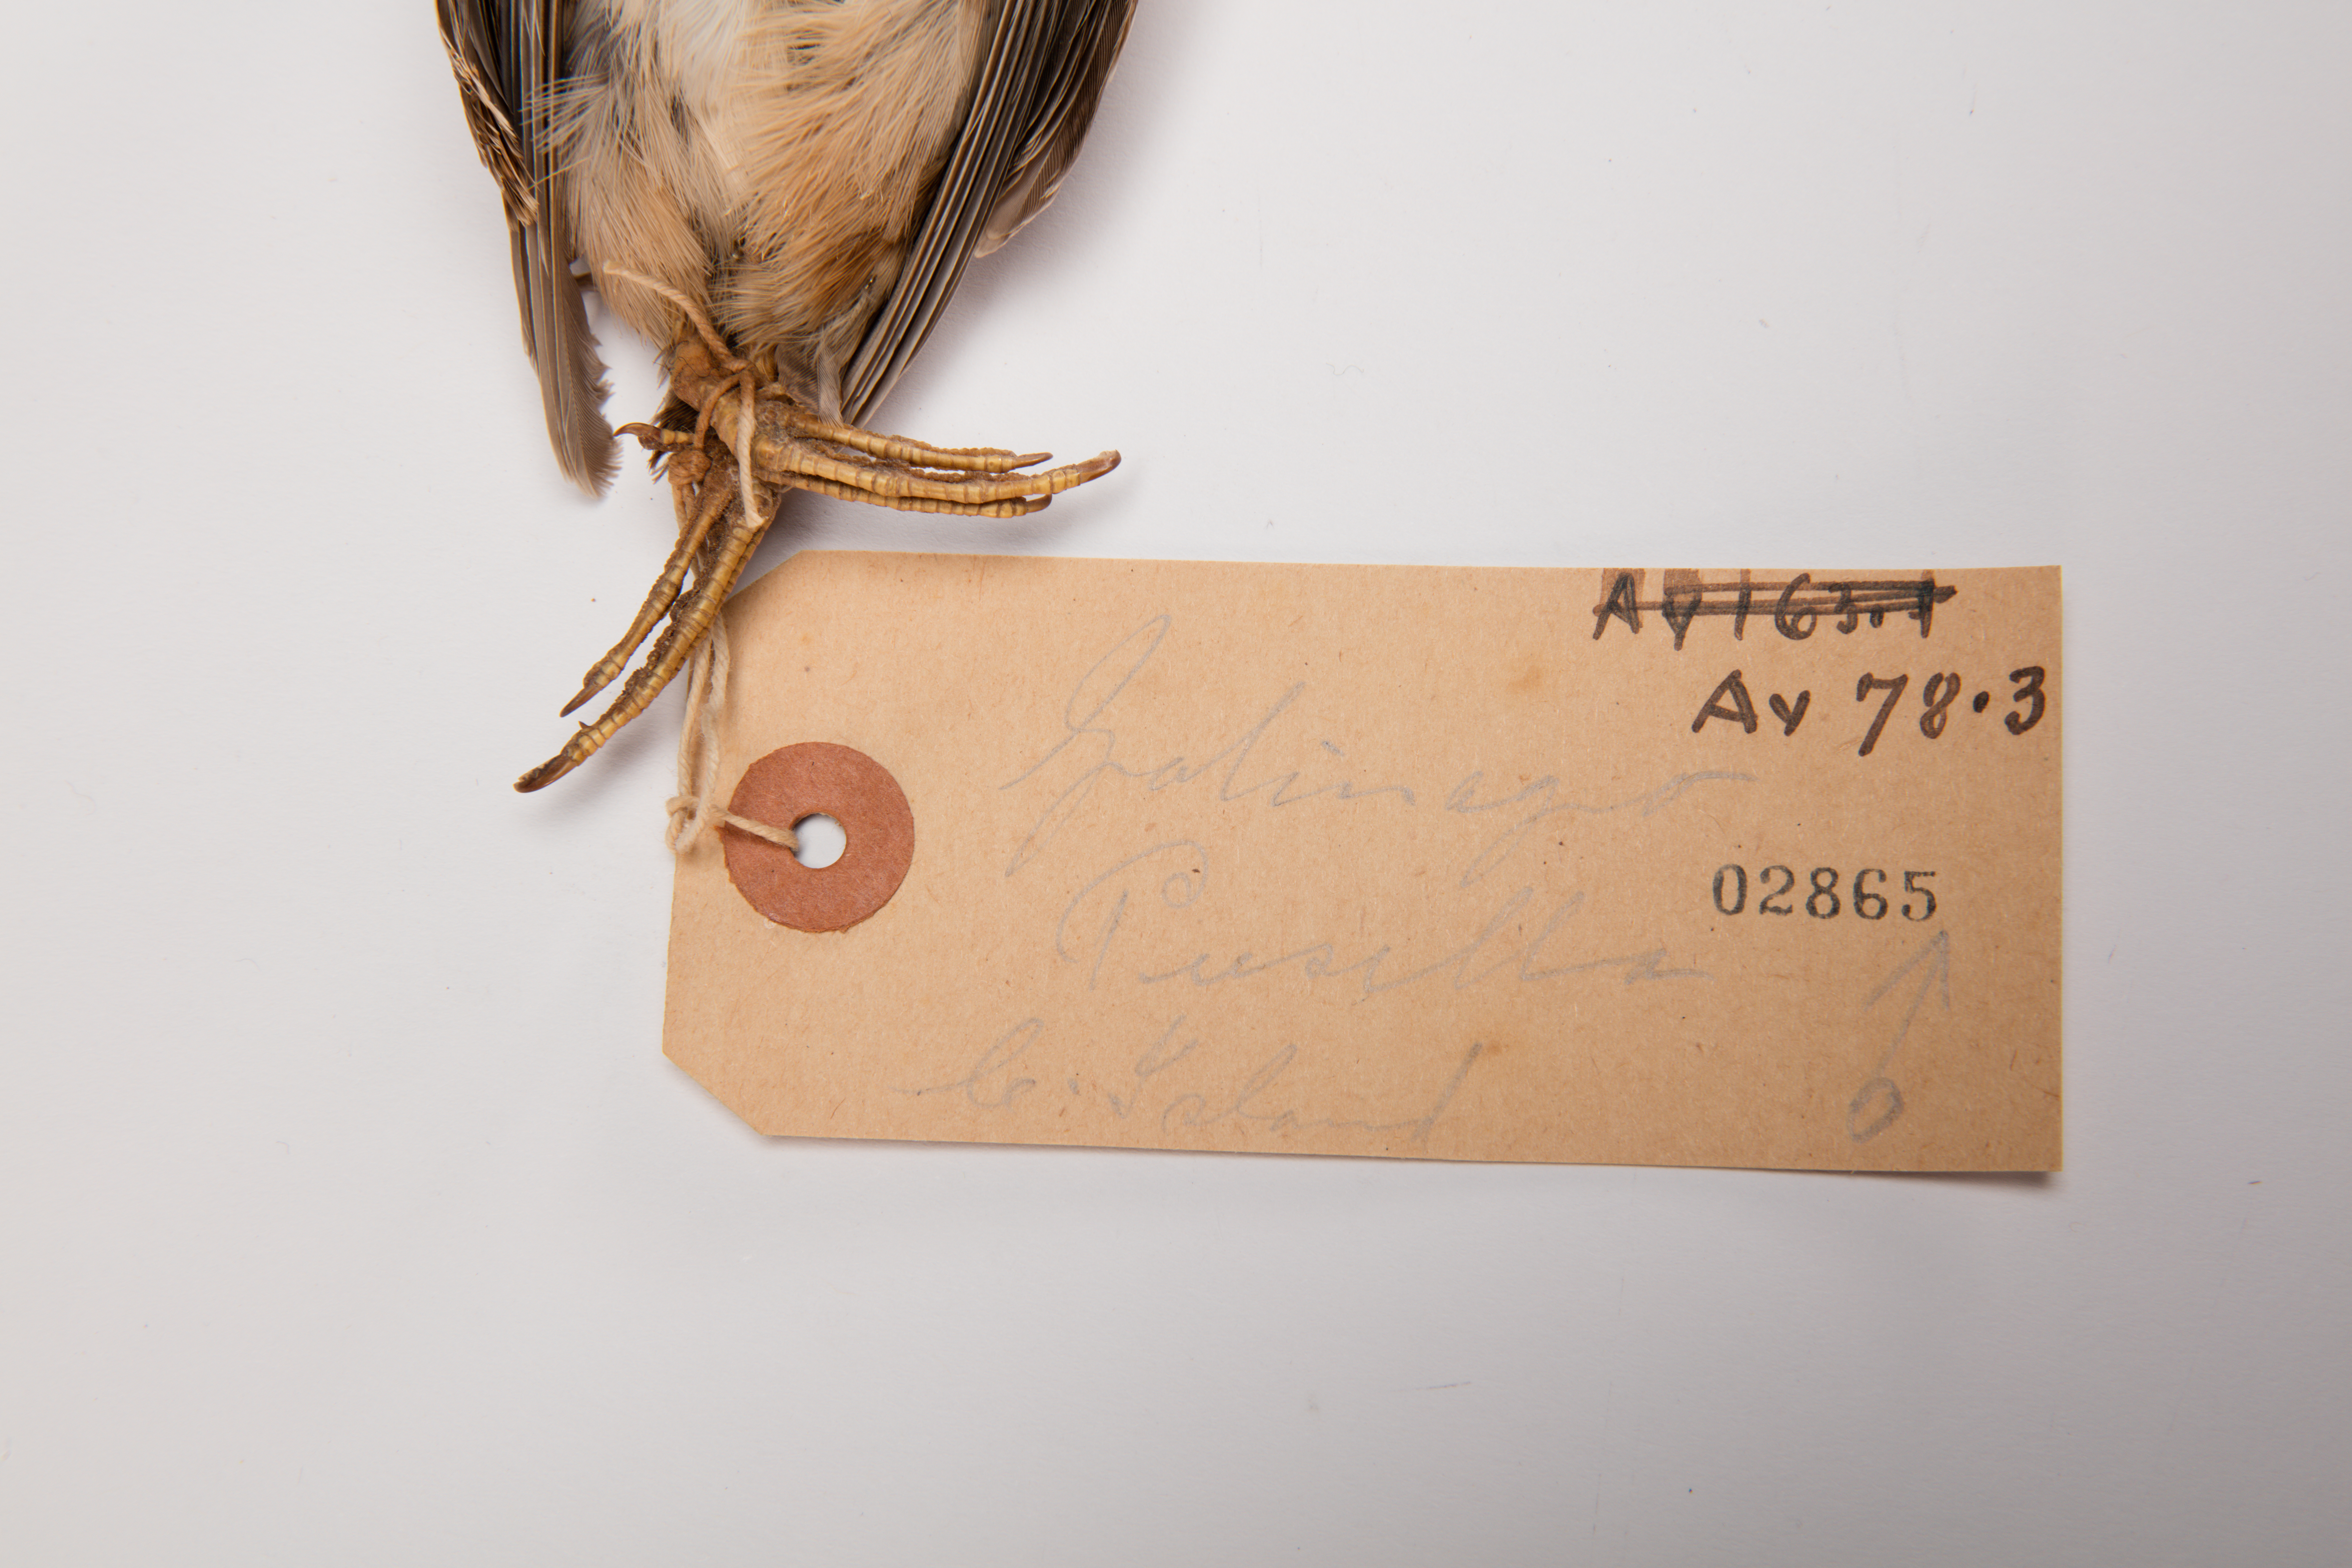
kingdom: Animalia
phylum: Chordata
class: Aves
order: Charadriiformes
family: Scolopacidae
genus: Coenocorypha
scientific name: Coenocorypha pusilla
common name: Chatham snipe
